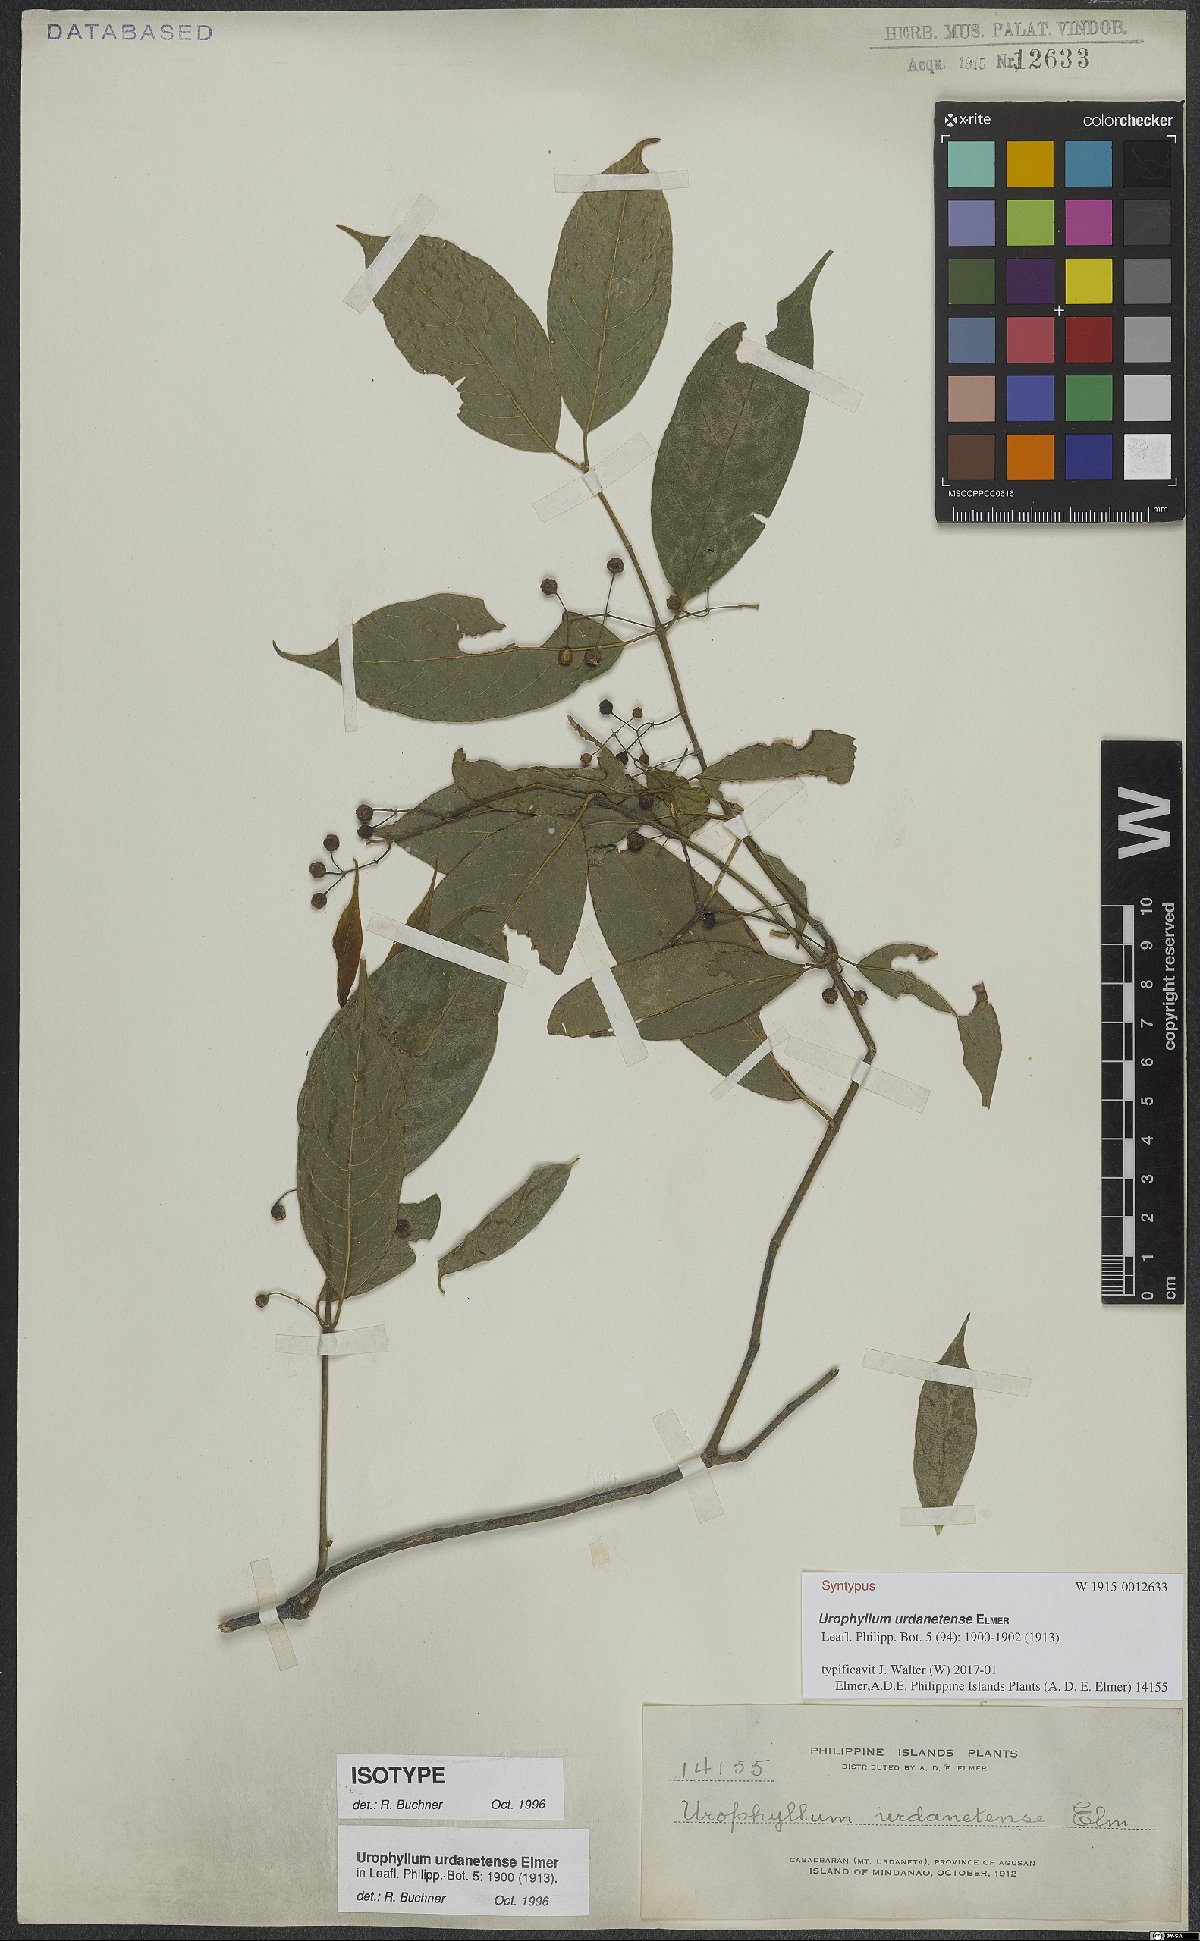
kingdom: Plantae
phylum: Tracheophyta
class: Magnoliopsida
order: Gentianales
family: Rubiaceae
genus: Urophyllum
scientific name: Urophyllum urdanetense
